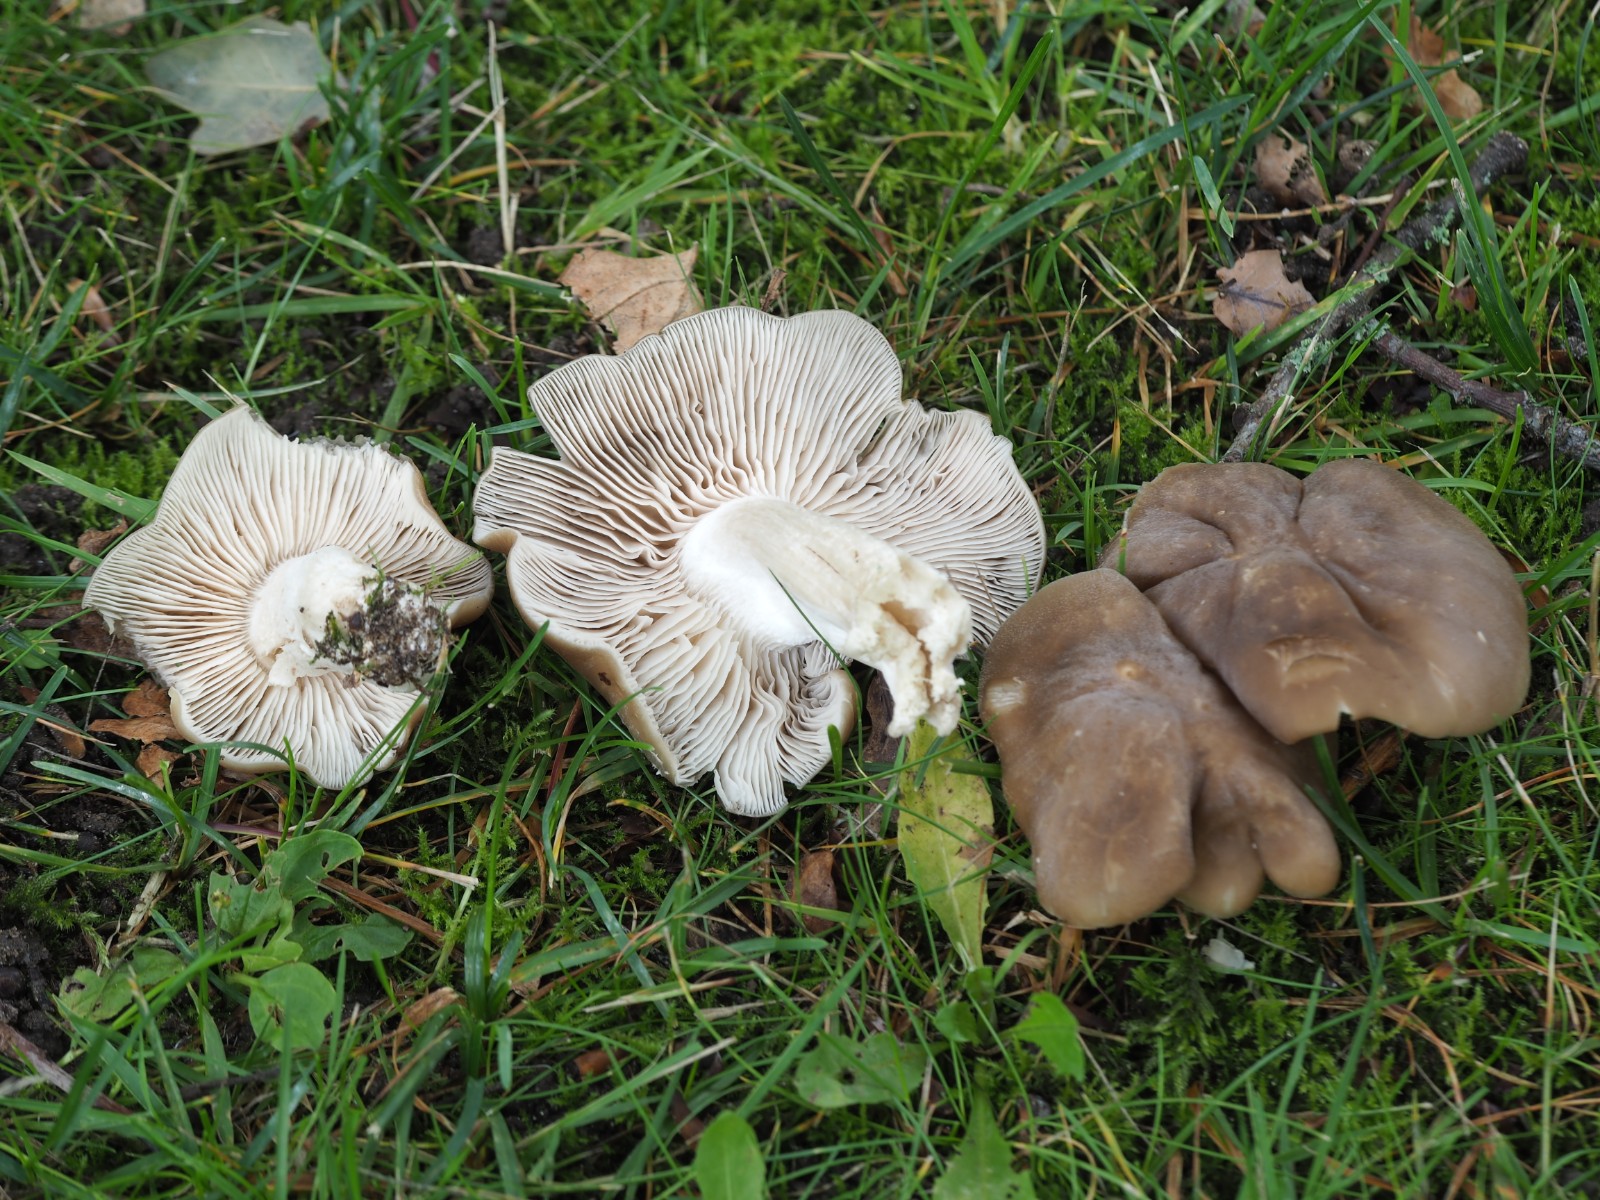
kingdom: Fungi
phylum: Basidiomycota
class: Agaricomycetes
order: Agaricales
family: Entolomataceae
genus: Entoloma
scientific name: Entoloma lividoalbum
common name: lysstokket rødblad
